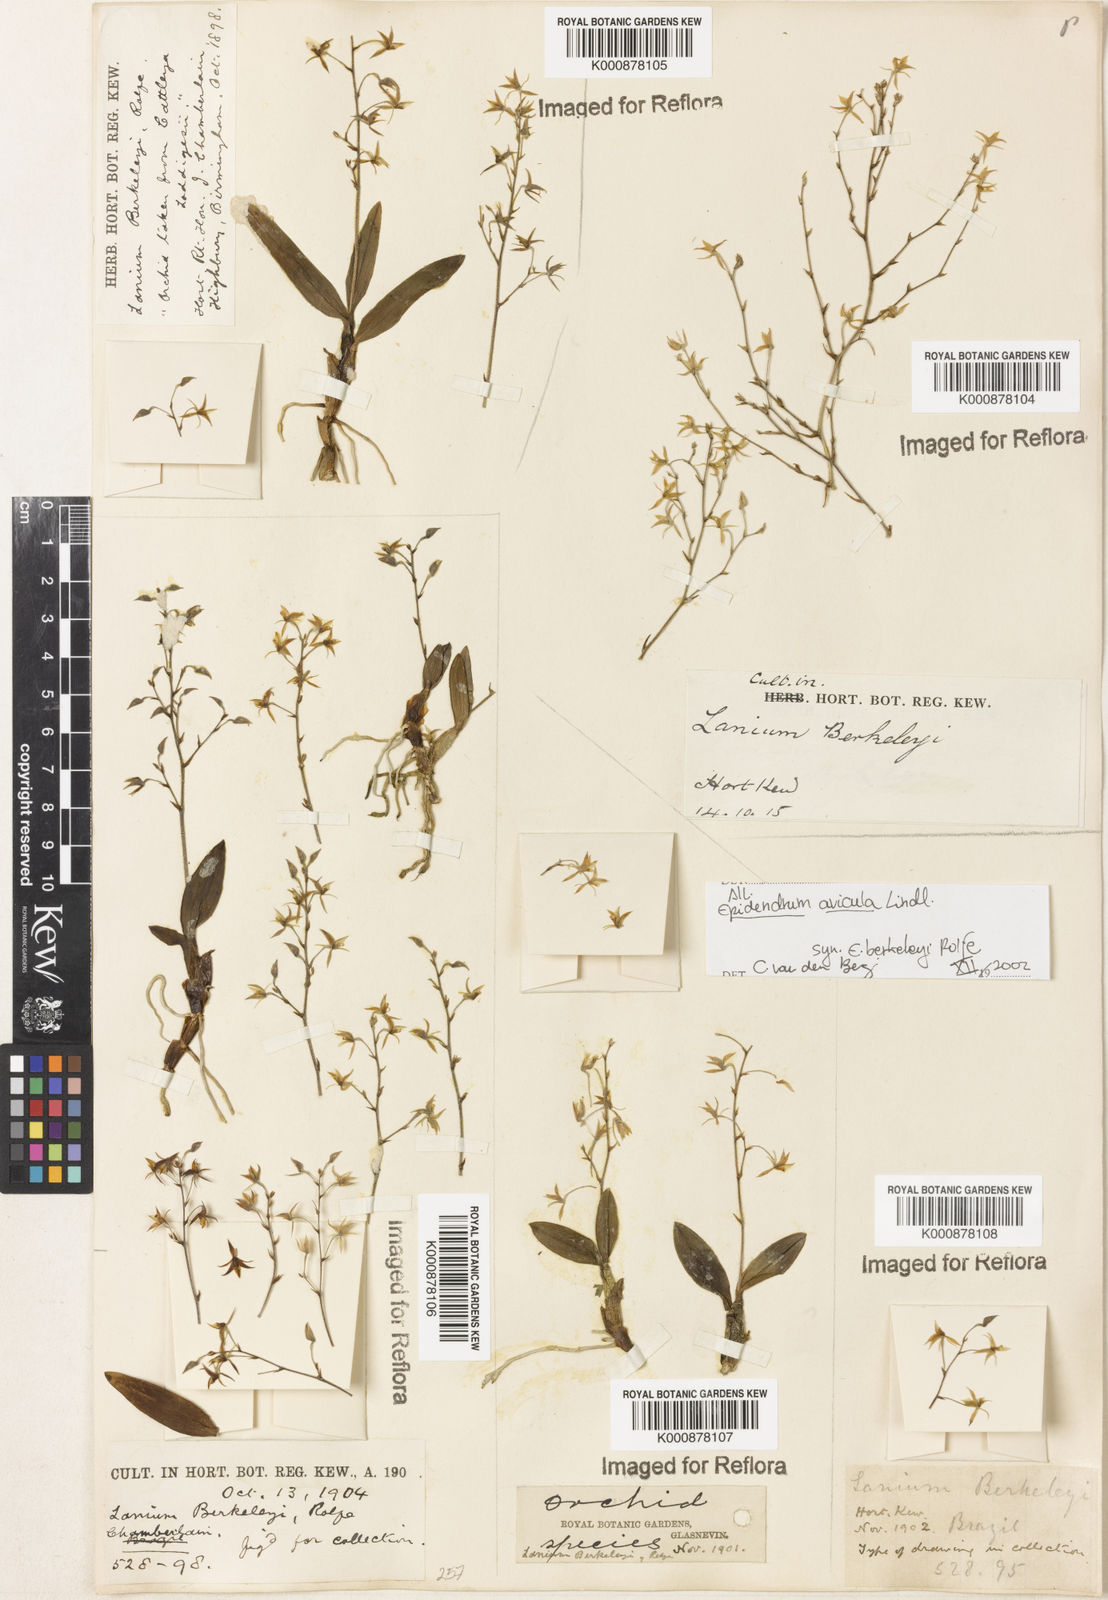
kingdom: Plantae
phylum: Tracheophyta
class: Liliopsida
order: Asparagales
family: Orchidaceae
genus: Epidendrum
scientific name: Epidendrum avicula
